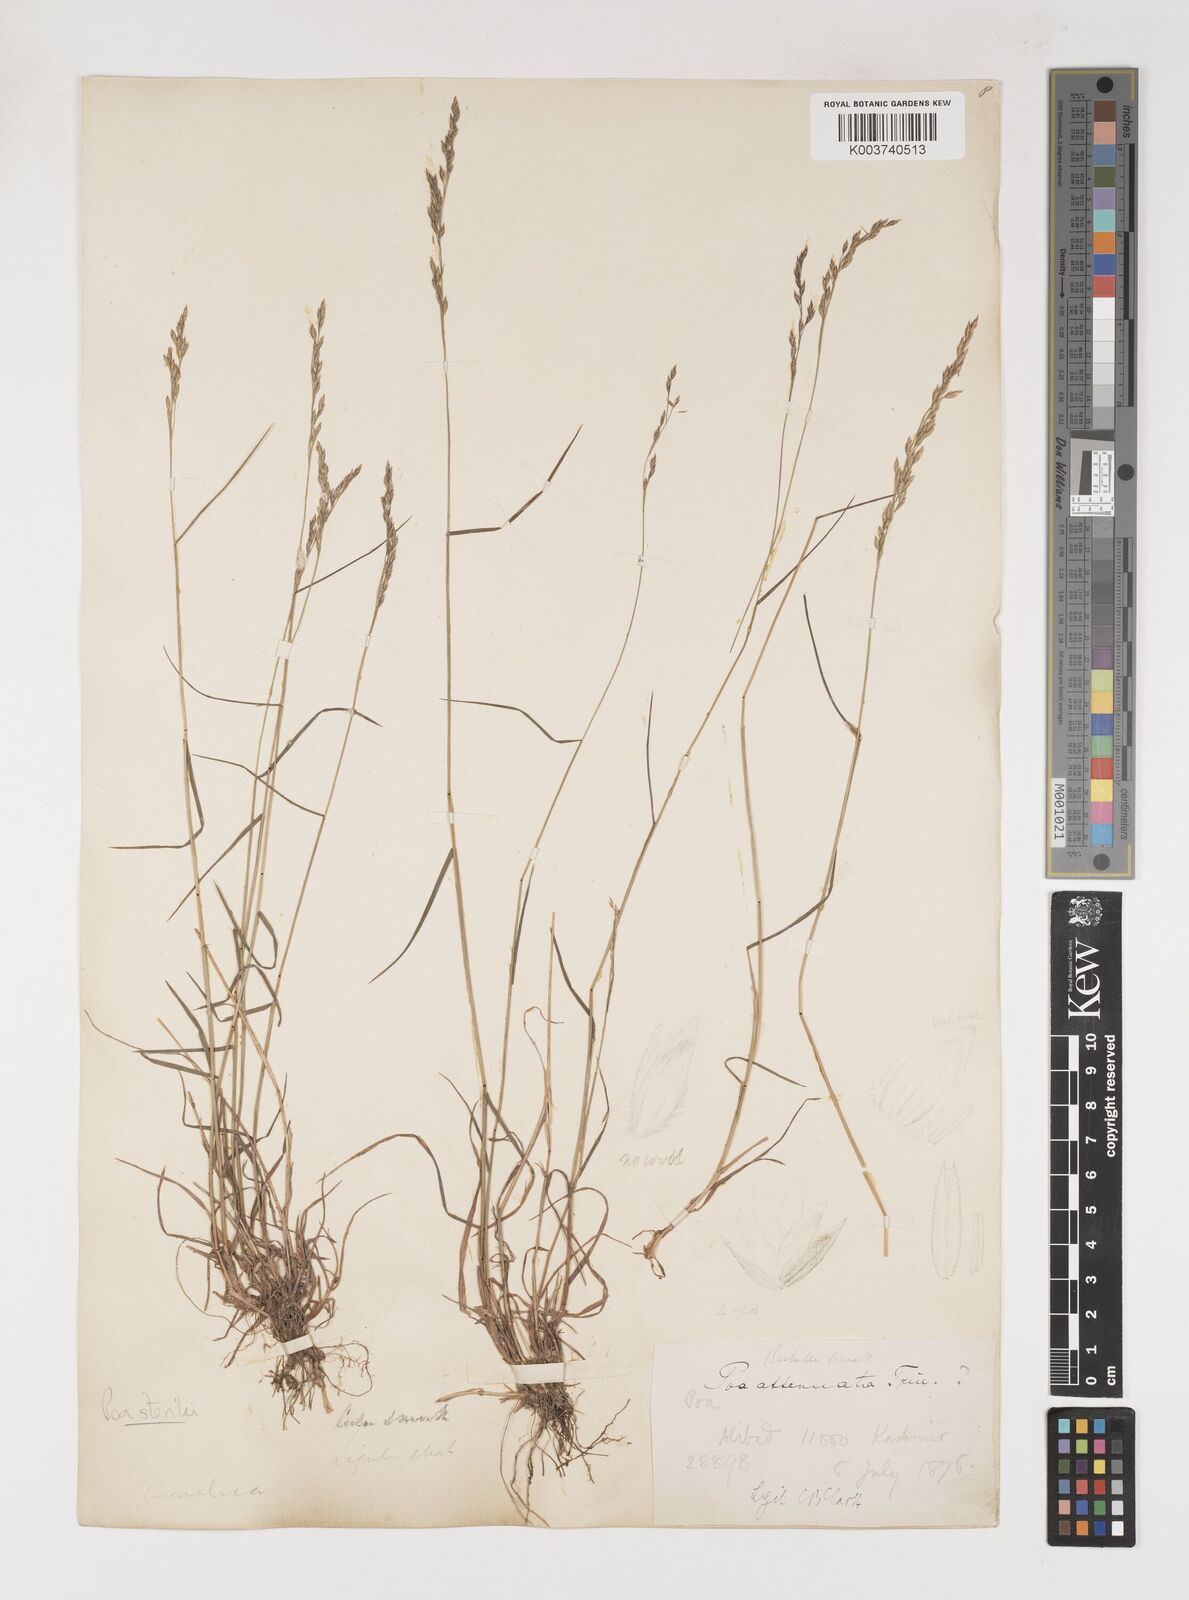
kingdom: Plantae
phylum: Tracheophyta
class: Liliopsida
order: Poales
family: Poaceae
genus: Poa
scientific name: Poa sterilis
